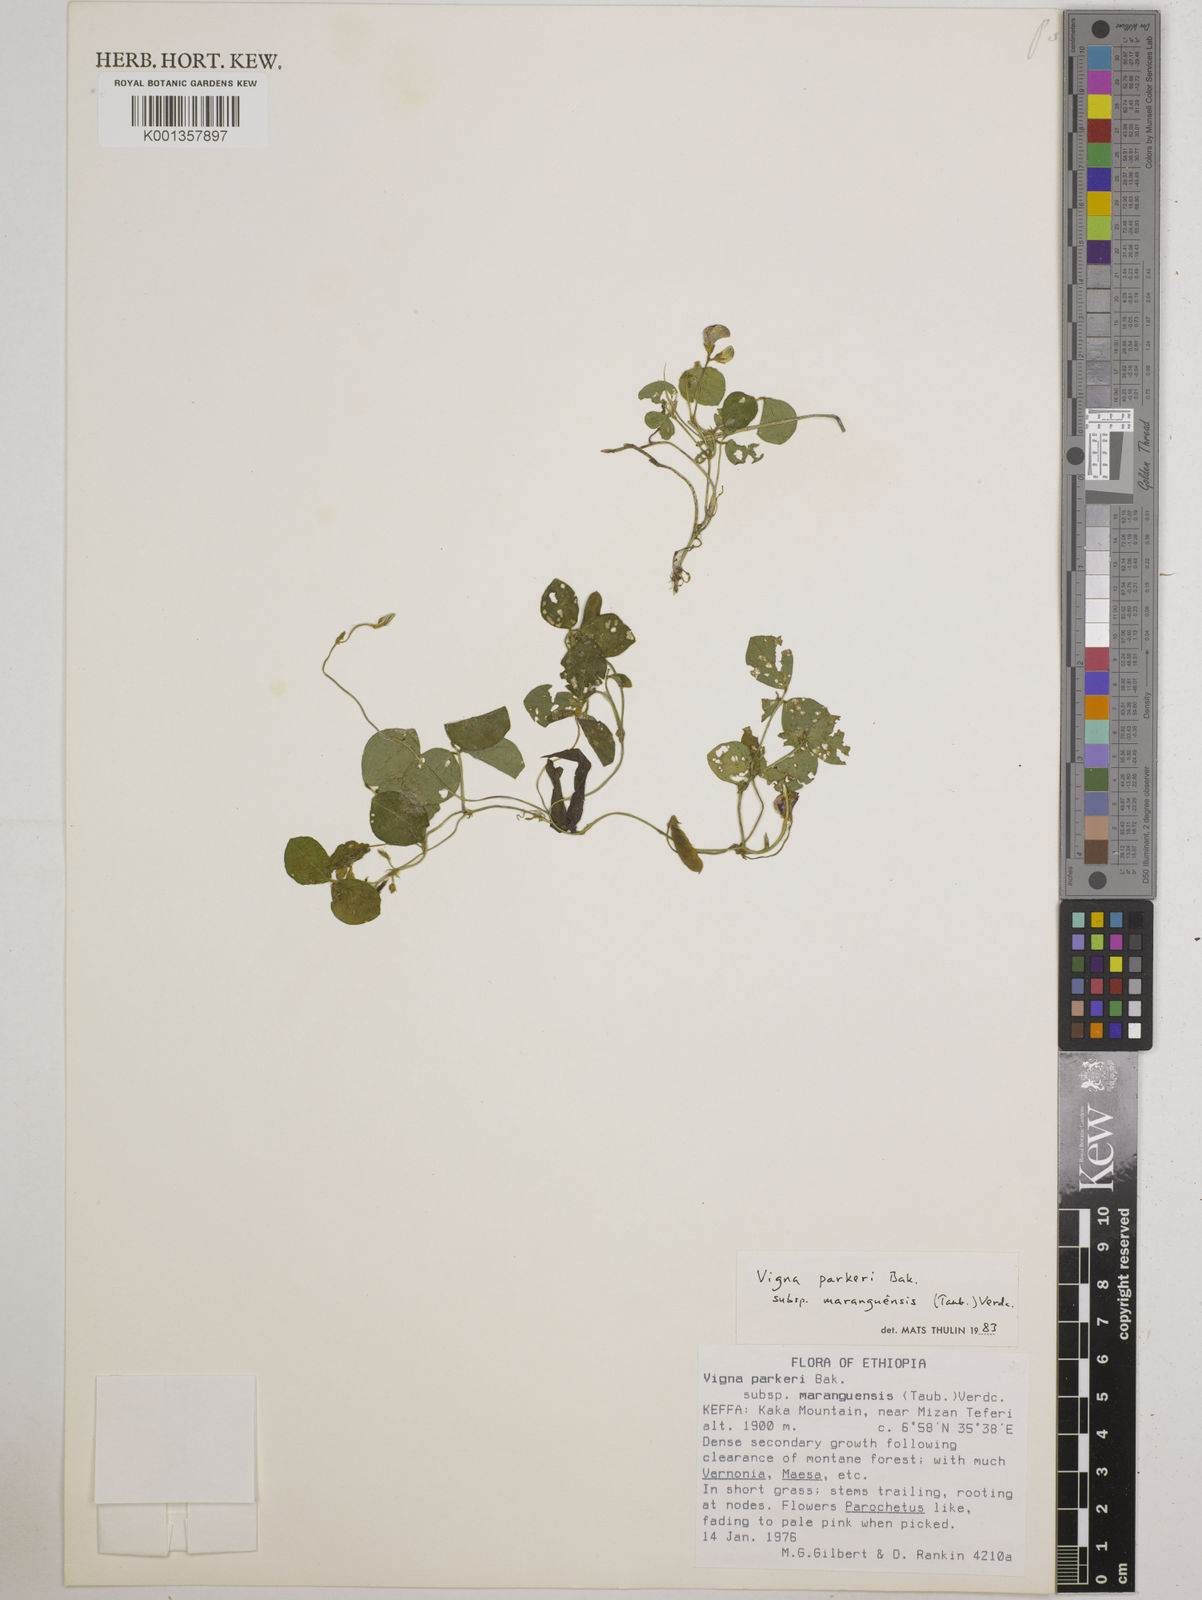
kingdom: Plantae
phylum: Tracheophyta
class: Magnoliopsida
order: Fabales
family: Fabaceae
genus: Vigna
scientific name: Vigna
